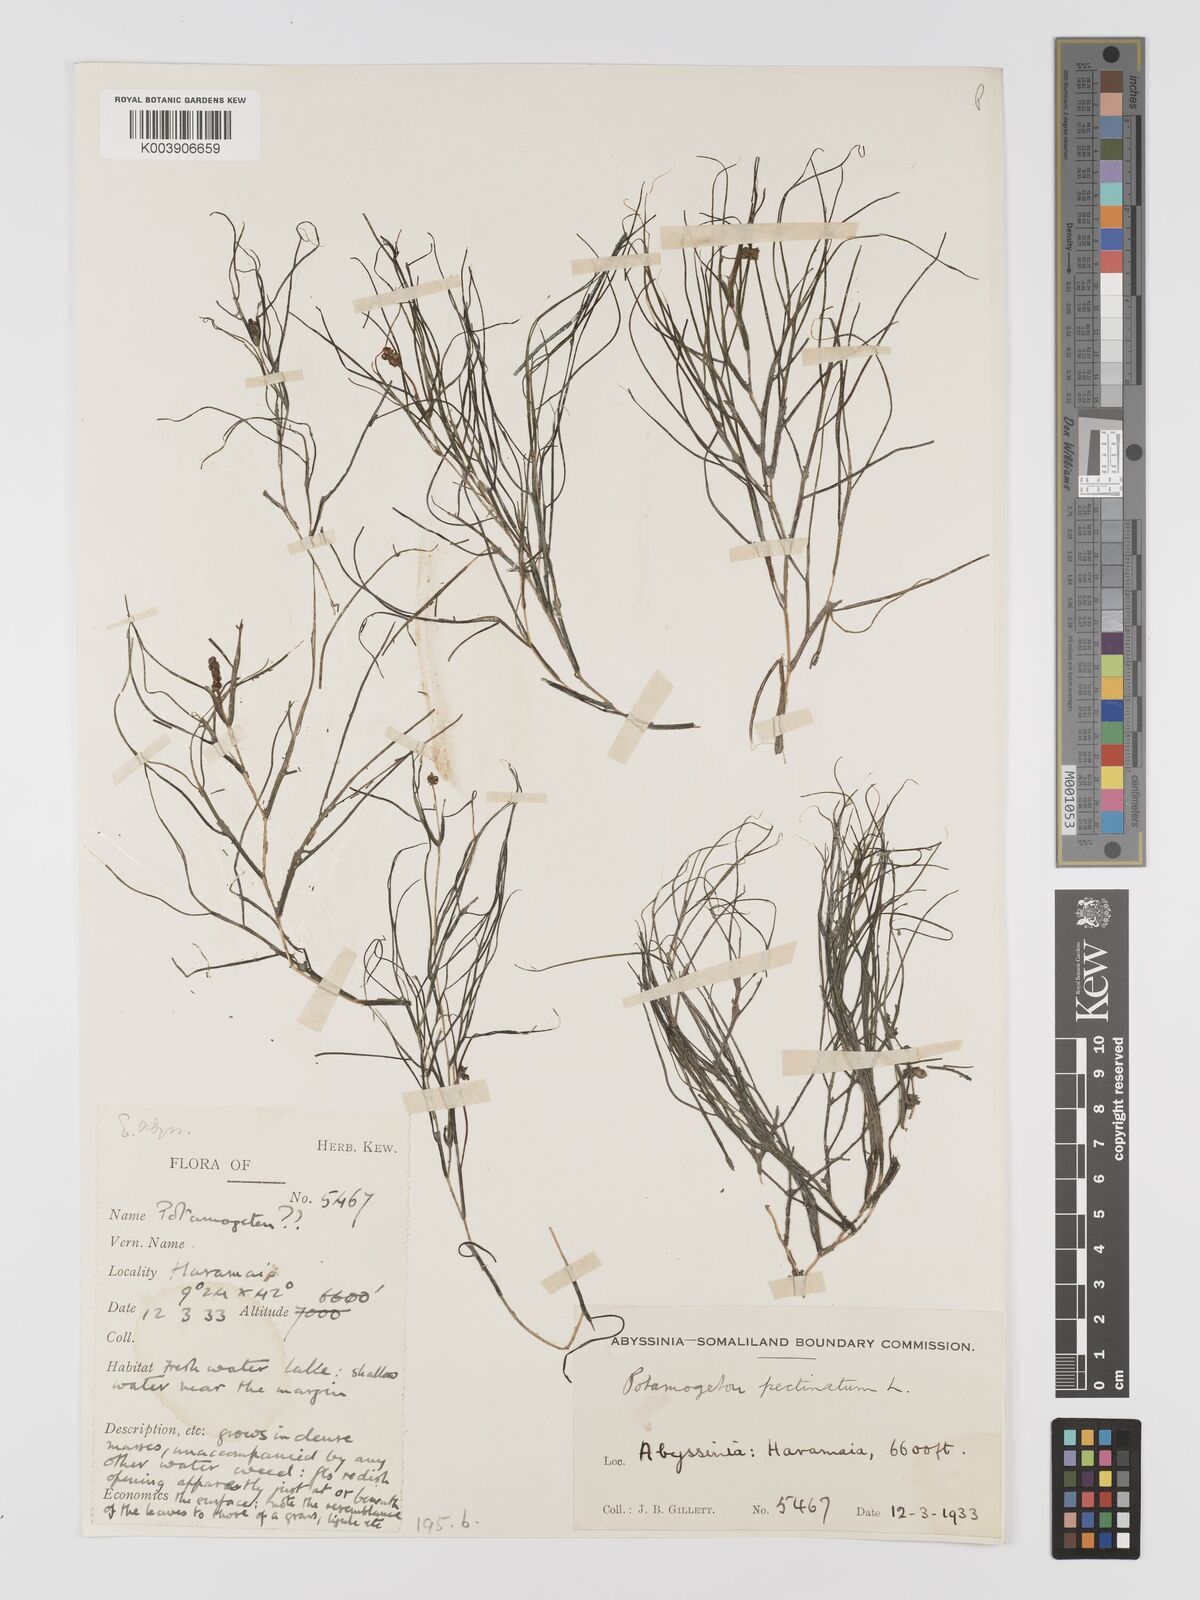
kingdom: Plantae
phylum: Tracheophyta
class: Liliopsida
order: Alismatales
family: Potamogetonaceae
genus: Stuckenia
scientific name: Stuckenia pectinata
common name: Sago pondweed
